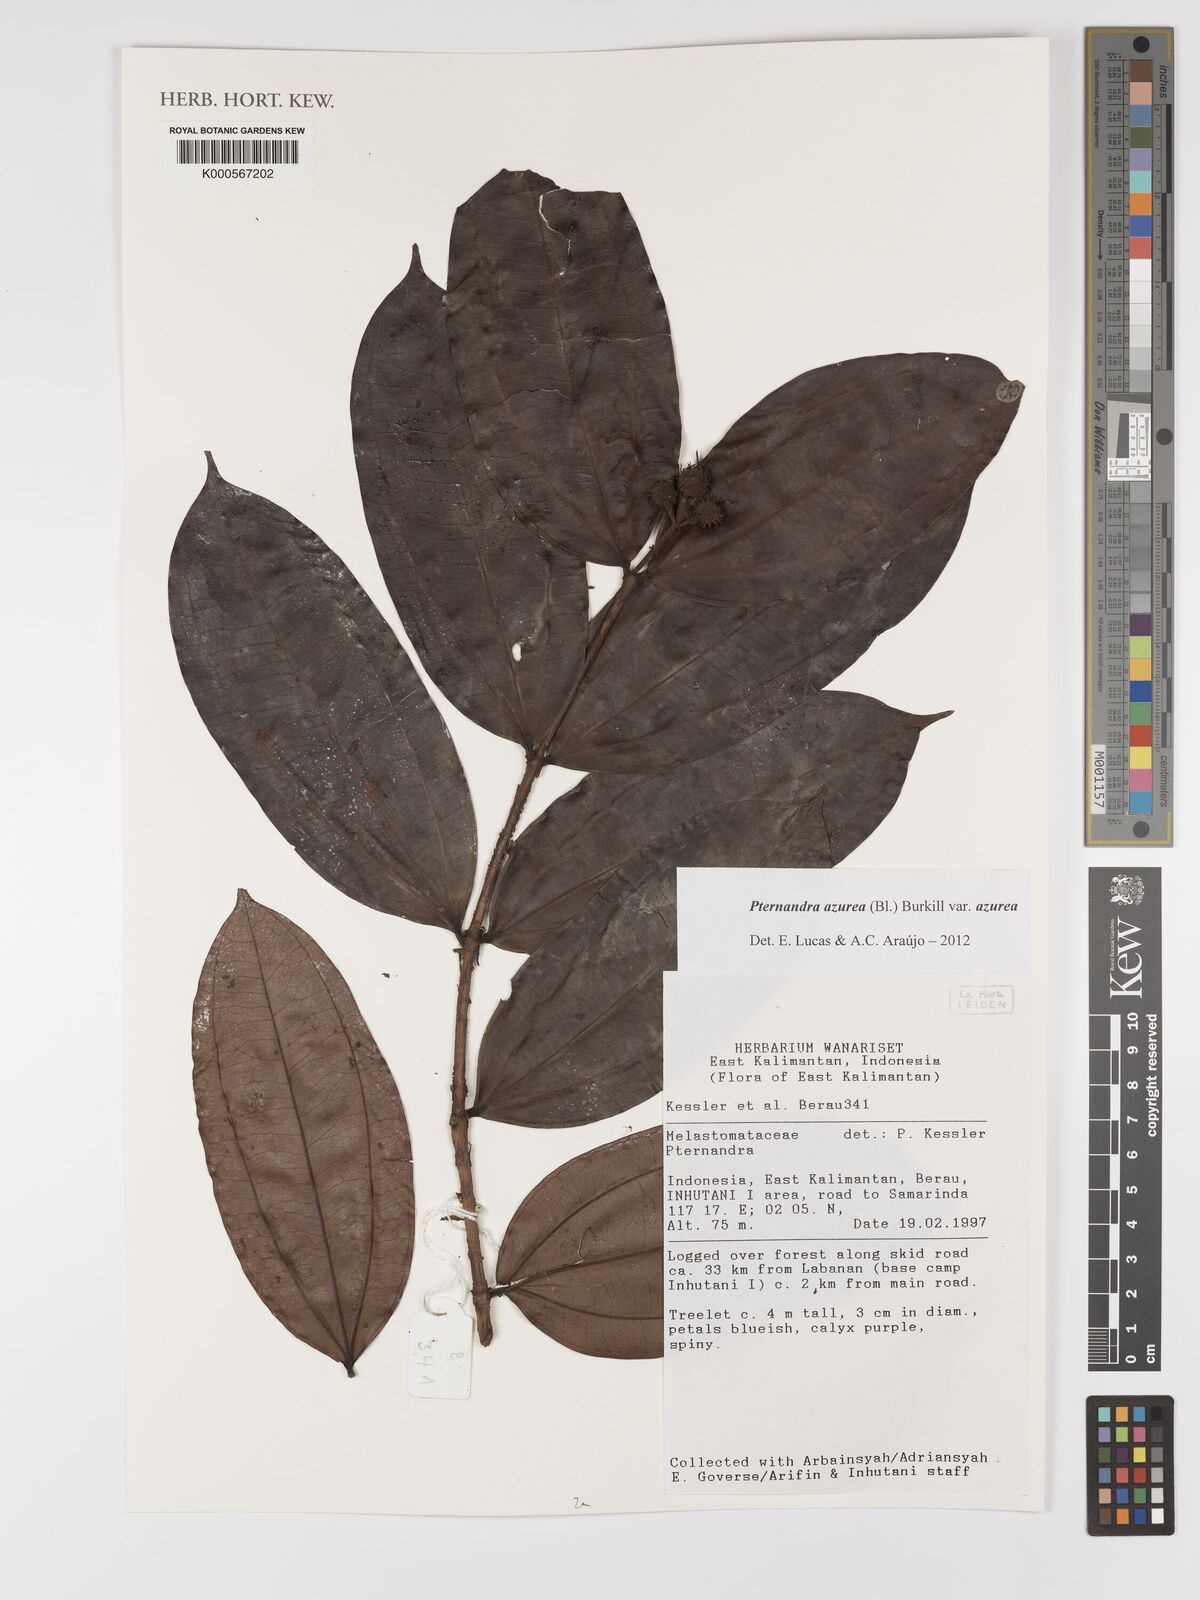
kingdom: Plantae
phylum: Tracheophyta
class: Magnoliopsida
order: Myrtales
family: Melastomataceae
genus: Pternandra
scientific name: Pternandra azurea
